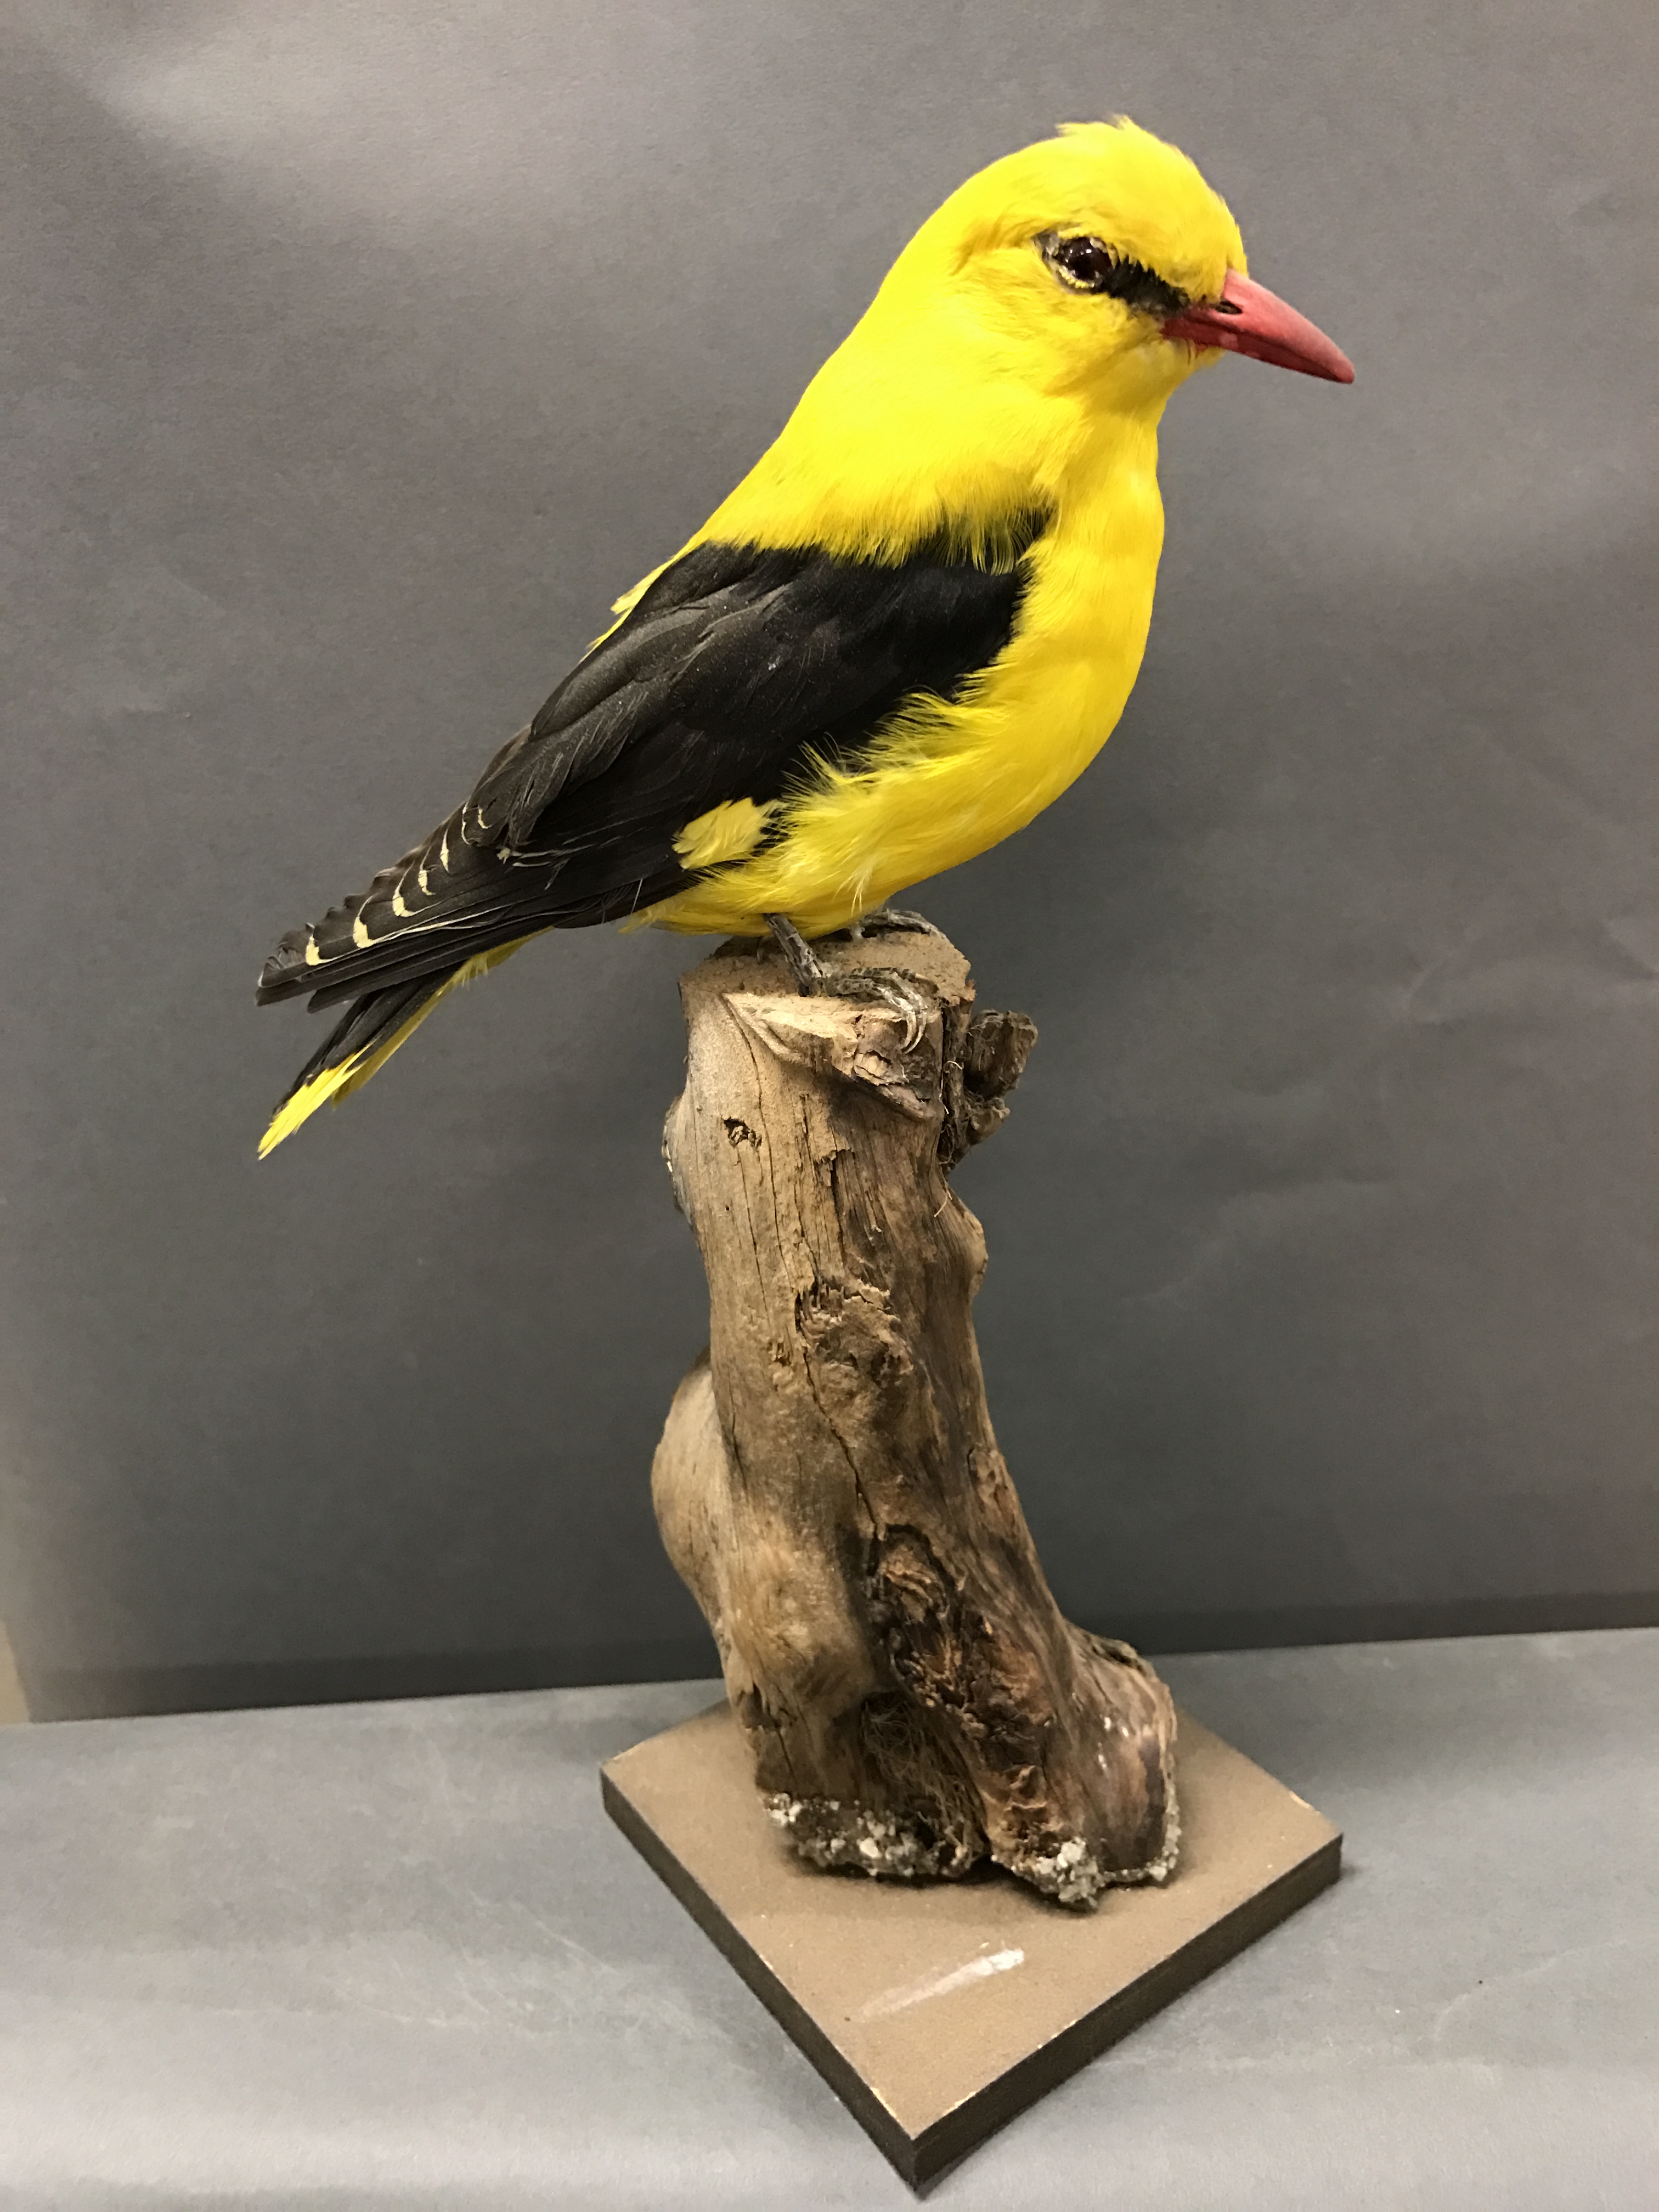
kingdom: Animalia
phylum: Chordata
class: Aves
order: Passeriformes
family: Oriolidae
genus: Oriolus
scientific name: Oriolus oriolus
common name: Eurasian golden oriole
